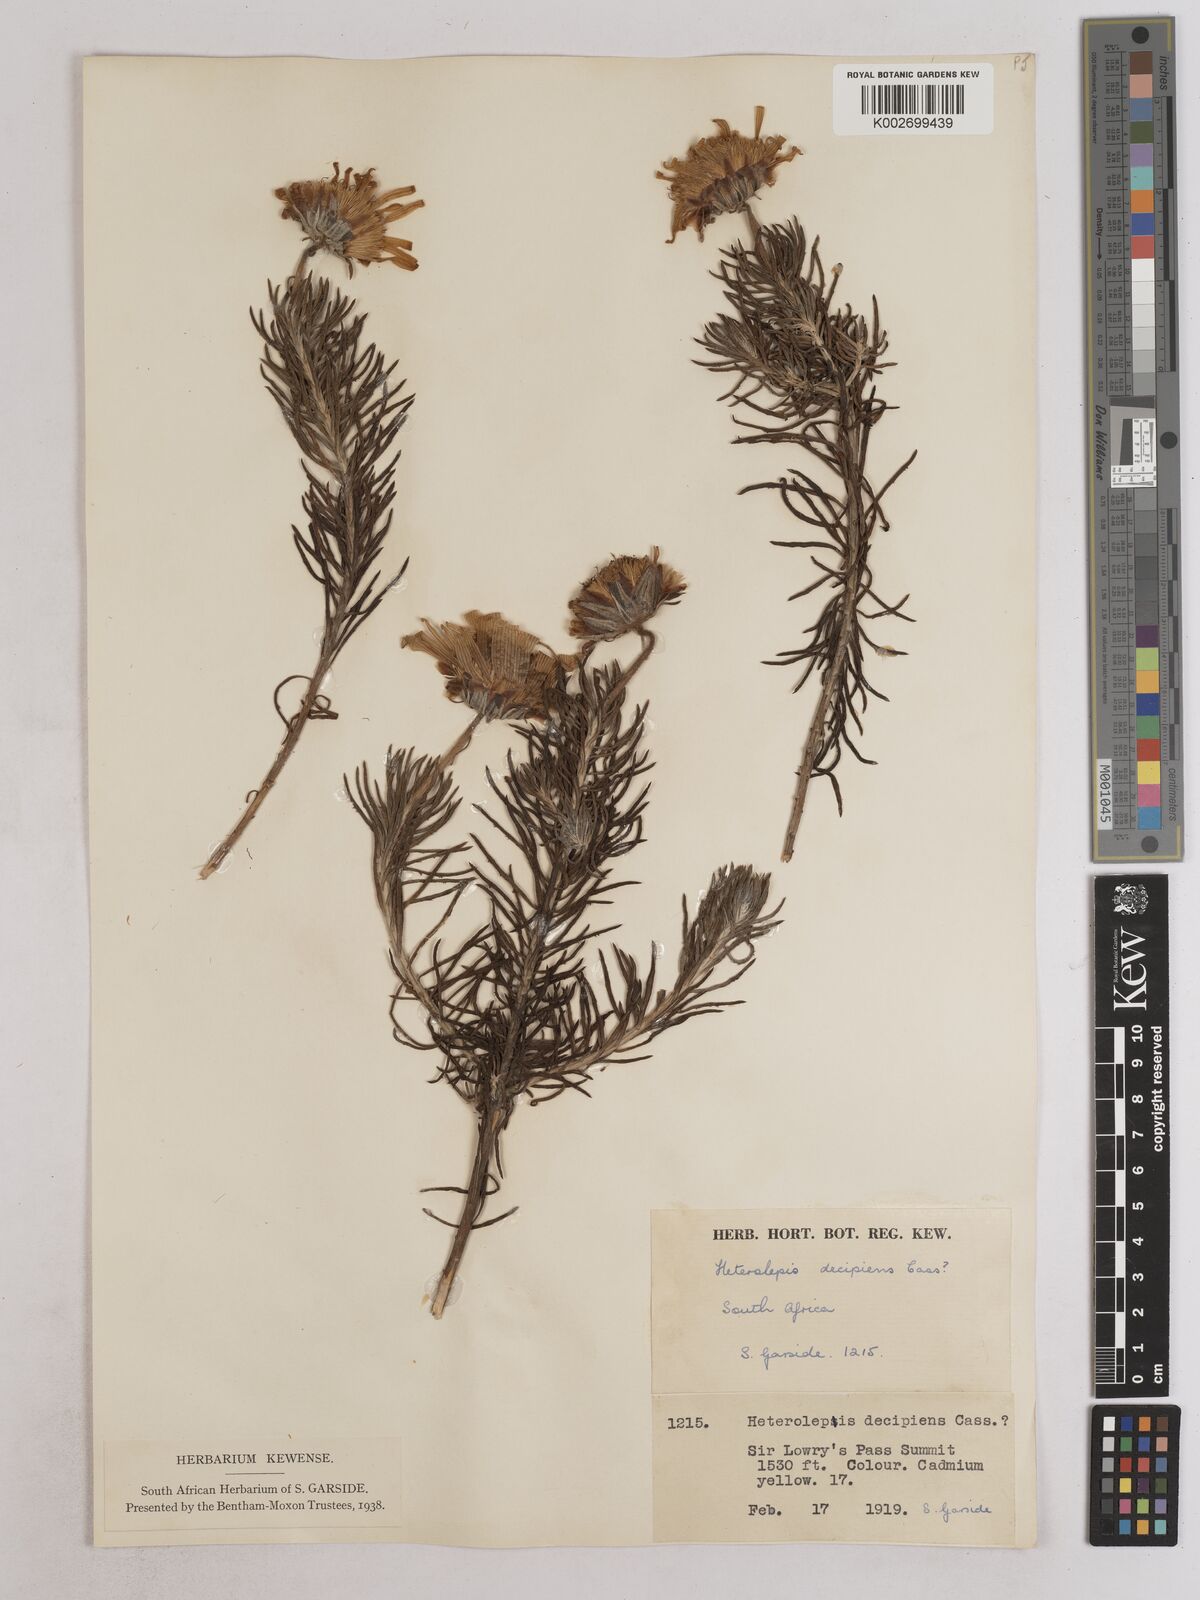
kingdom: Plantae
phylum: Tracheophyta
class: Magnoliopsida
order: Asterales
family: Asteraceae
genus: Heterolepis
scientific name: Heterolepis aliena
